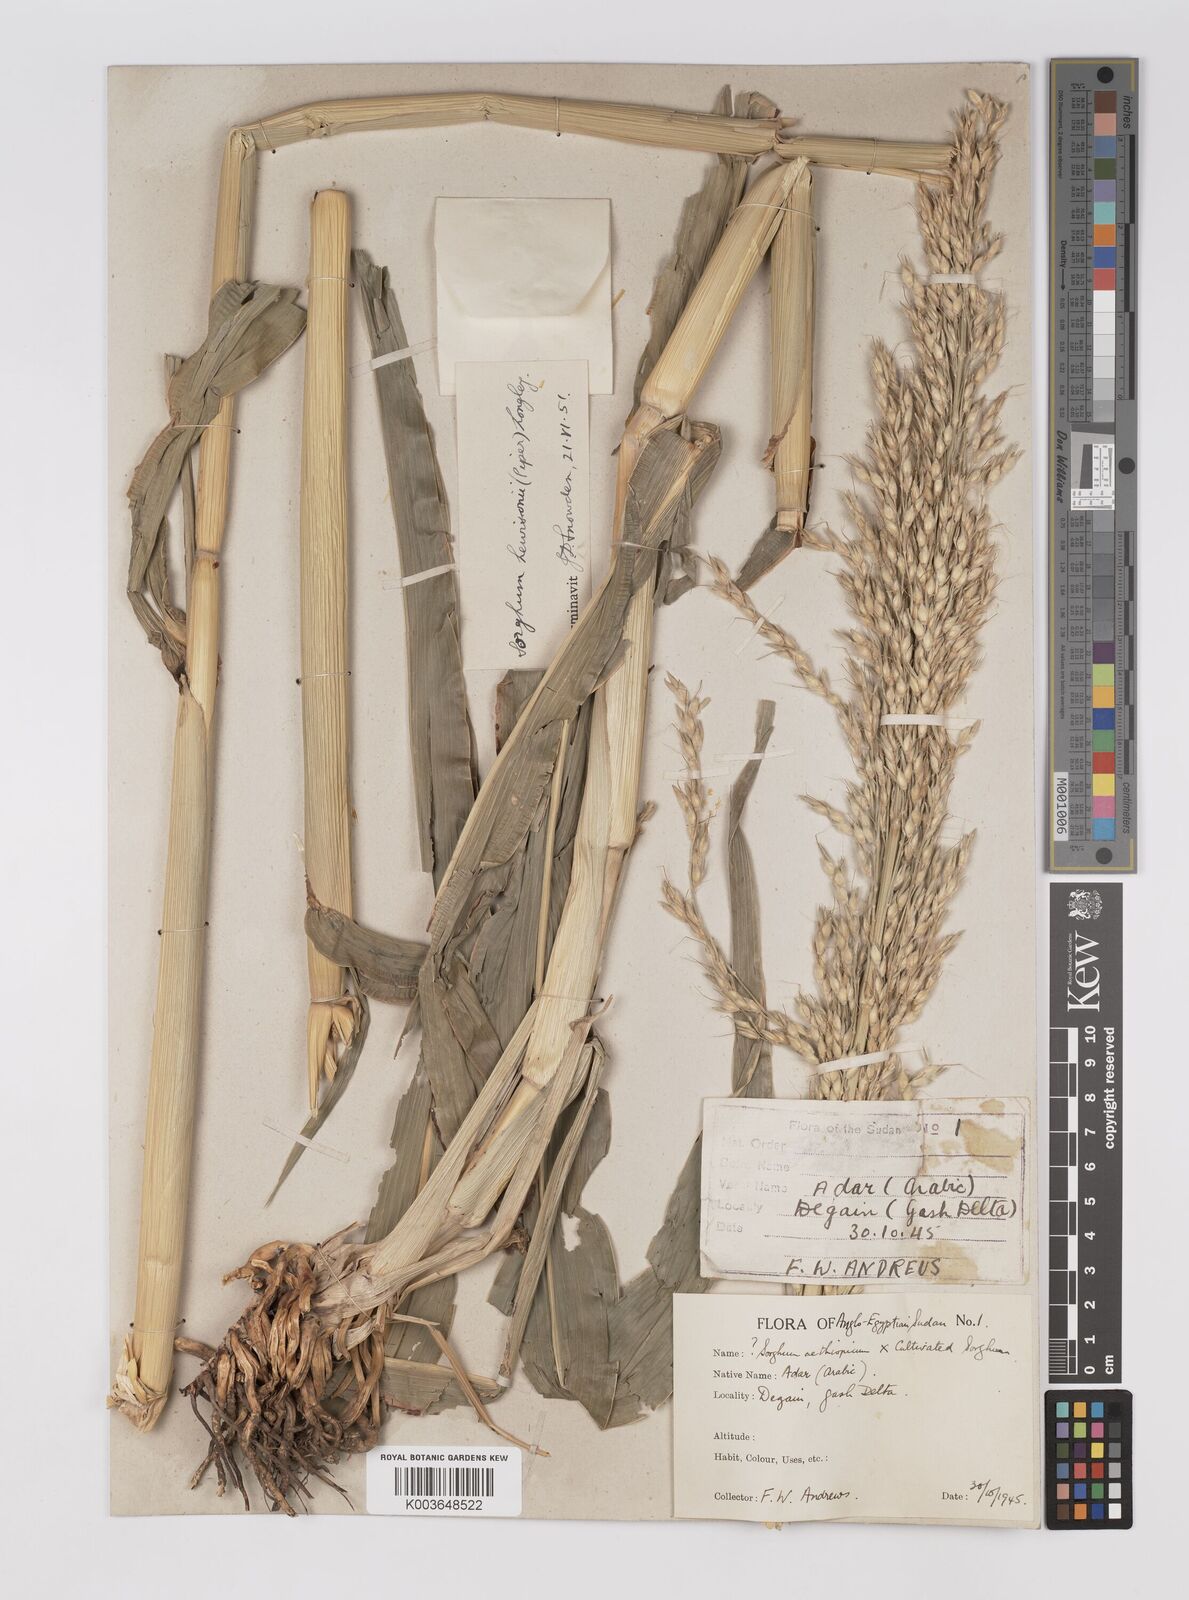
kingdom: Plantae
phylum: Tracheophyta
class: Liliopsida
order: Poales
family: Poaceae
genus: Sorghum
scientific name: Sorghum drummondii
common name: Sudangrass
